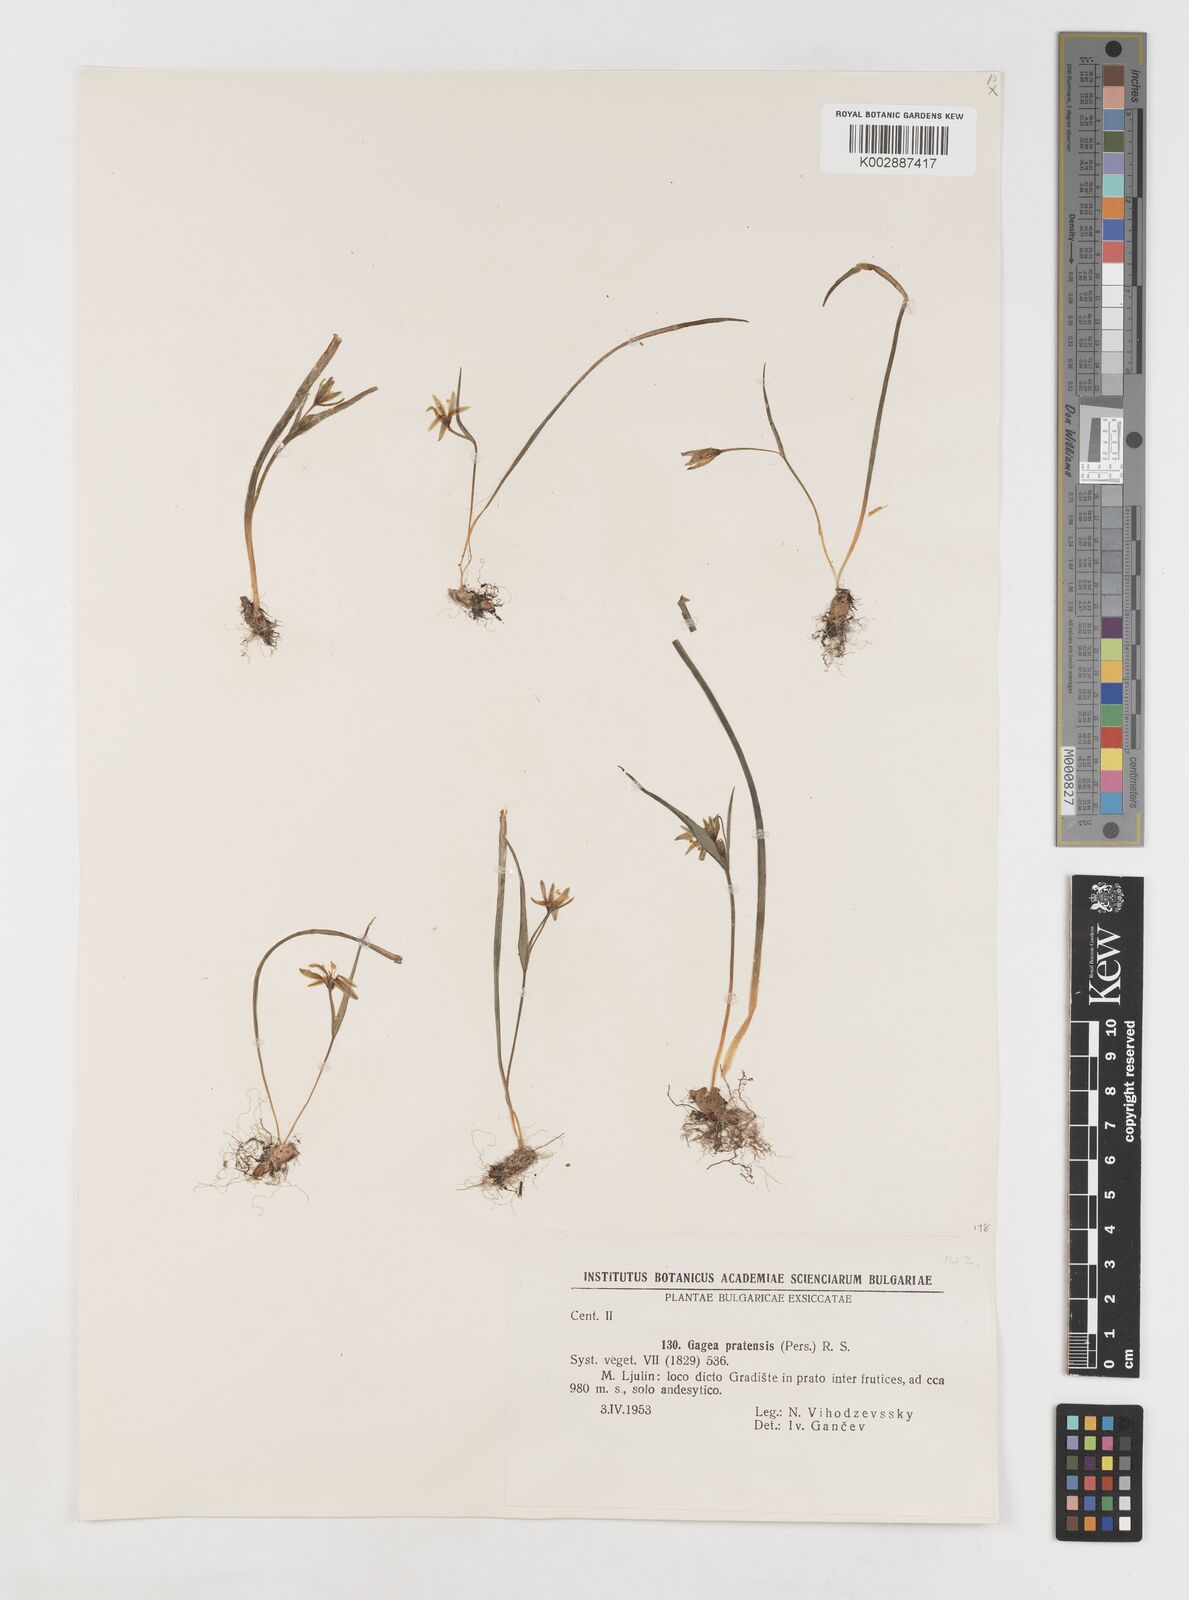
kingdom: Plantae
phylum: Tracheophyta
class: Liliopsida
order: Liliales
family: Liliaceae
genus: Gagea
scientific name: Gagea pratensis
